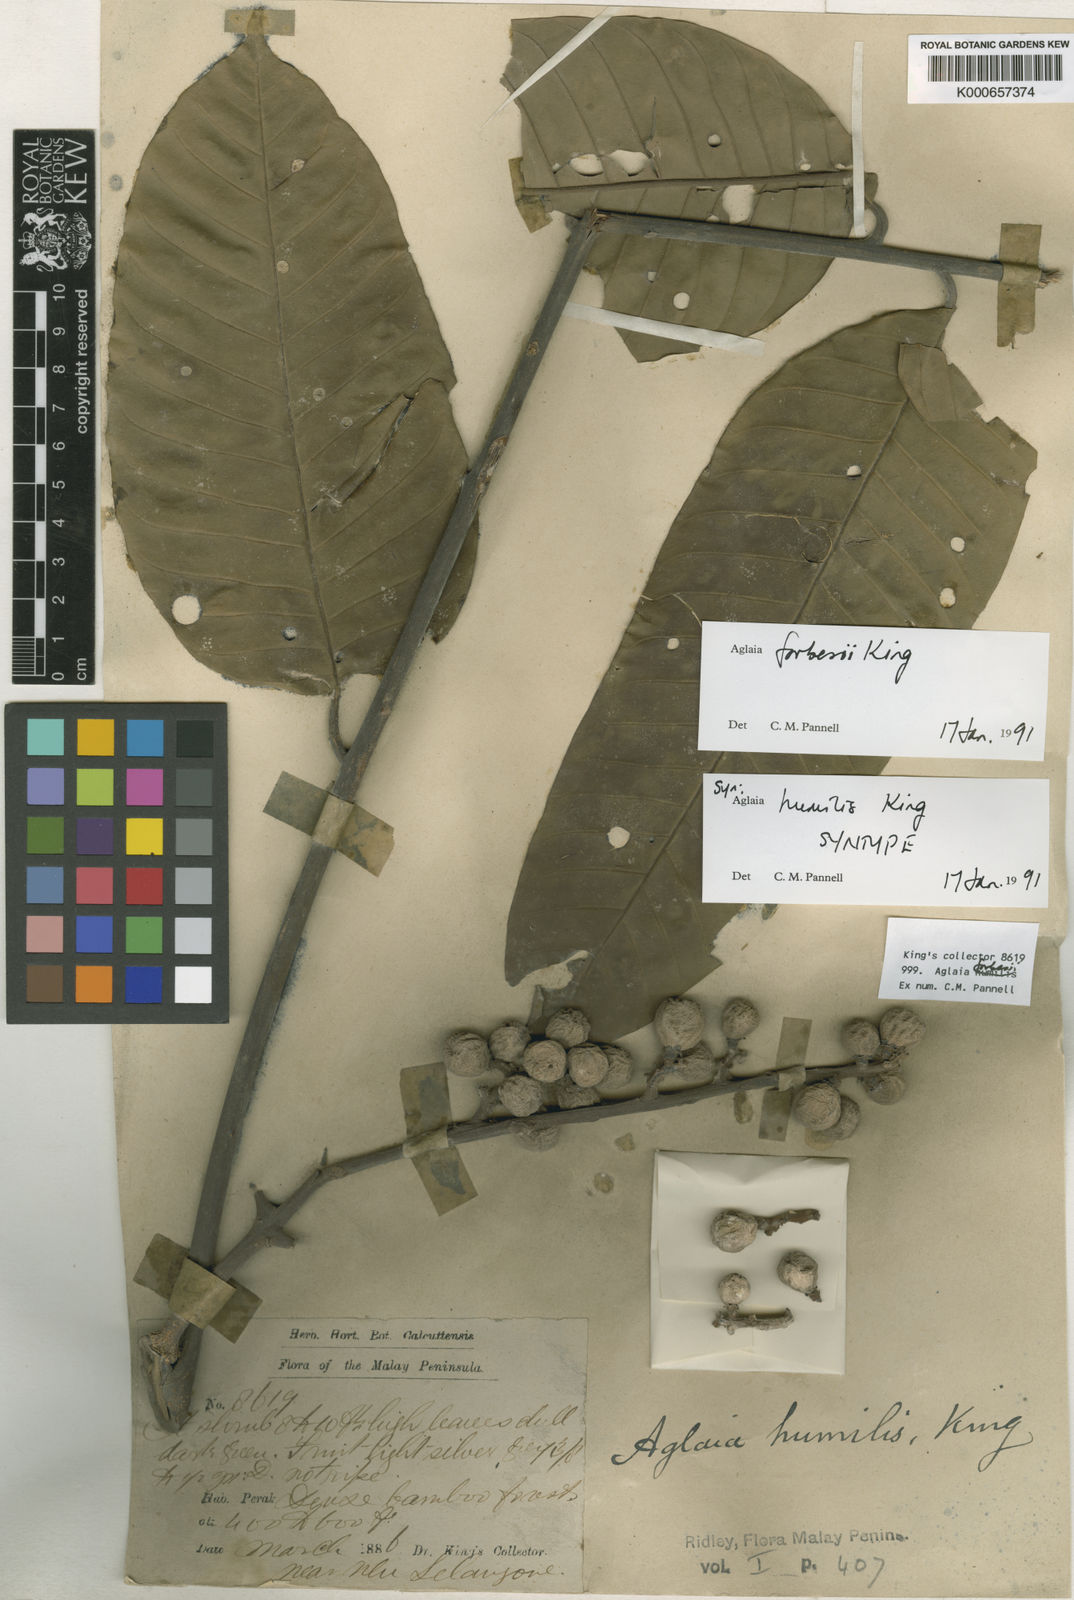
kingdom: Plantae
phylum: Tracheophyta
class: Magnoliopsida
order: Sapindales
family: Meliaceae
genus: Aglaia
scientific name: Aglaia forbesii
